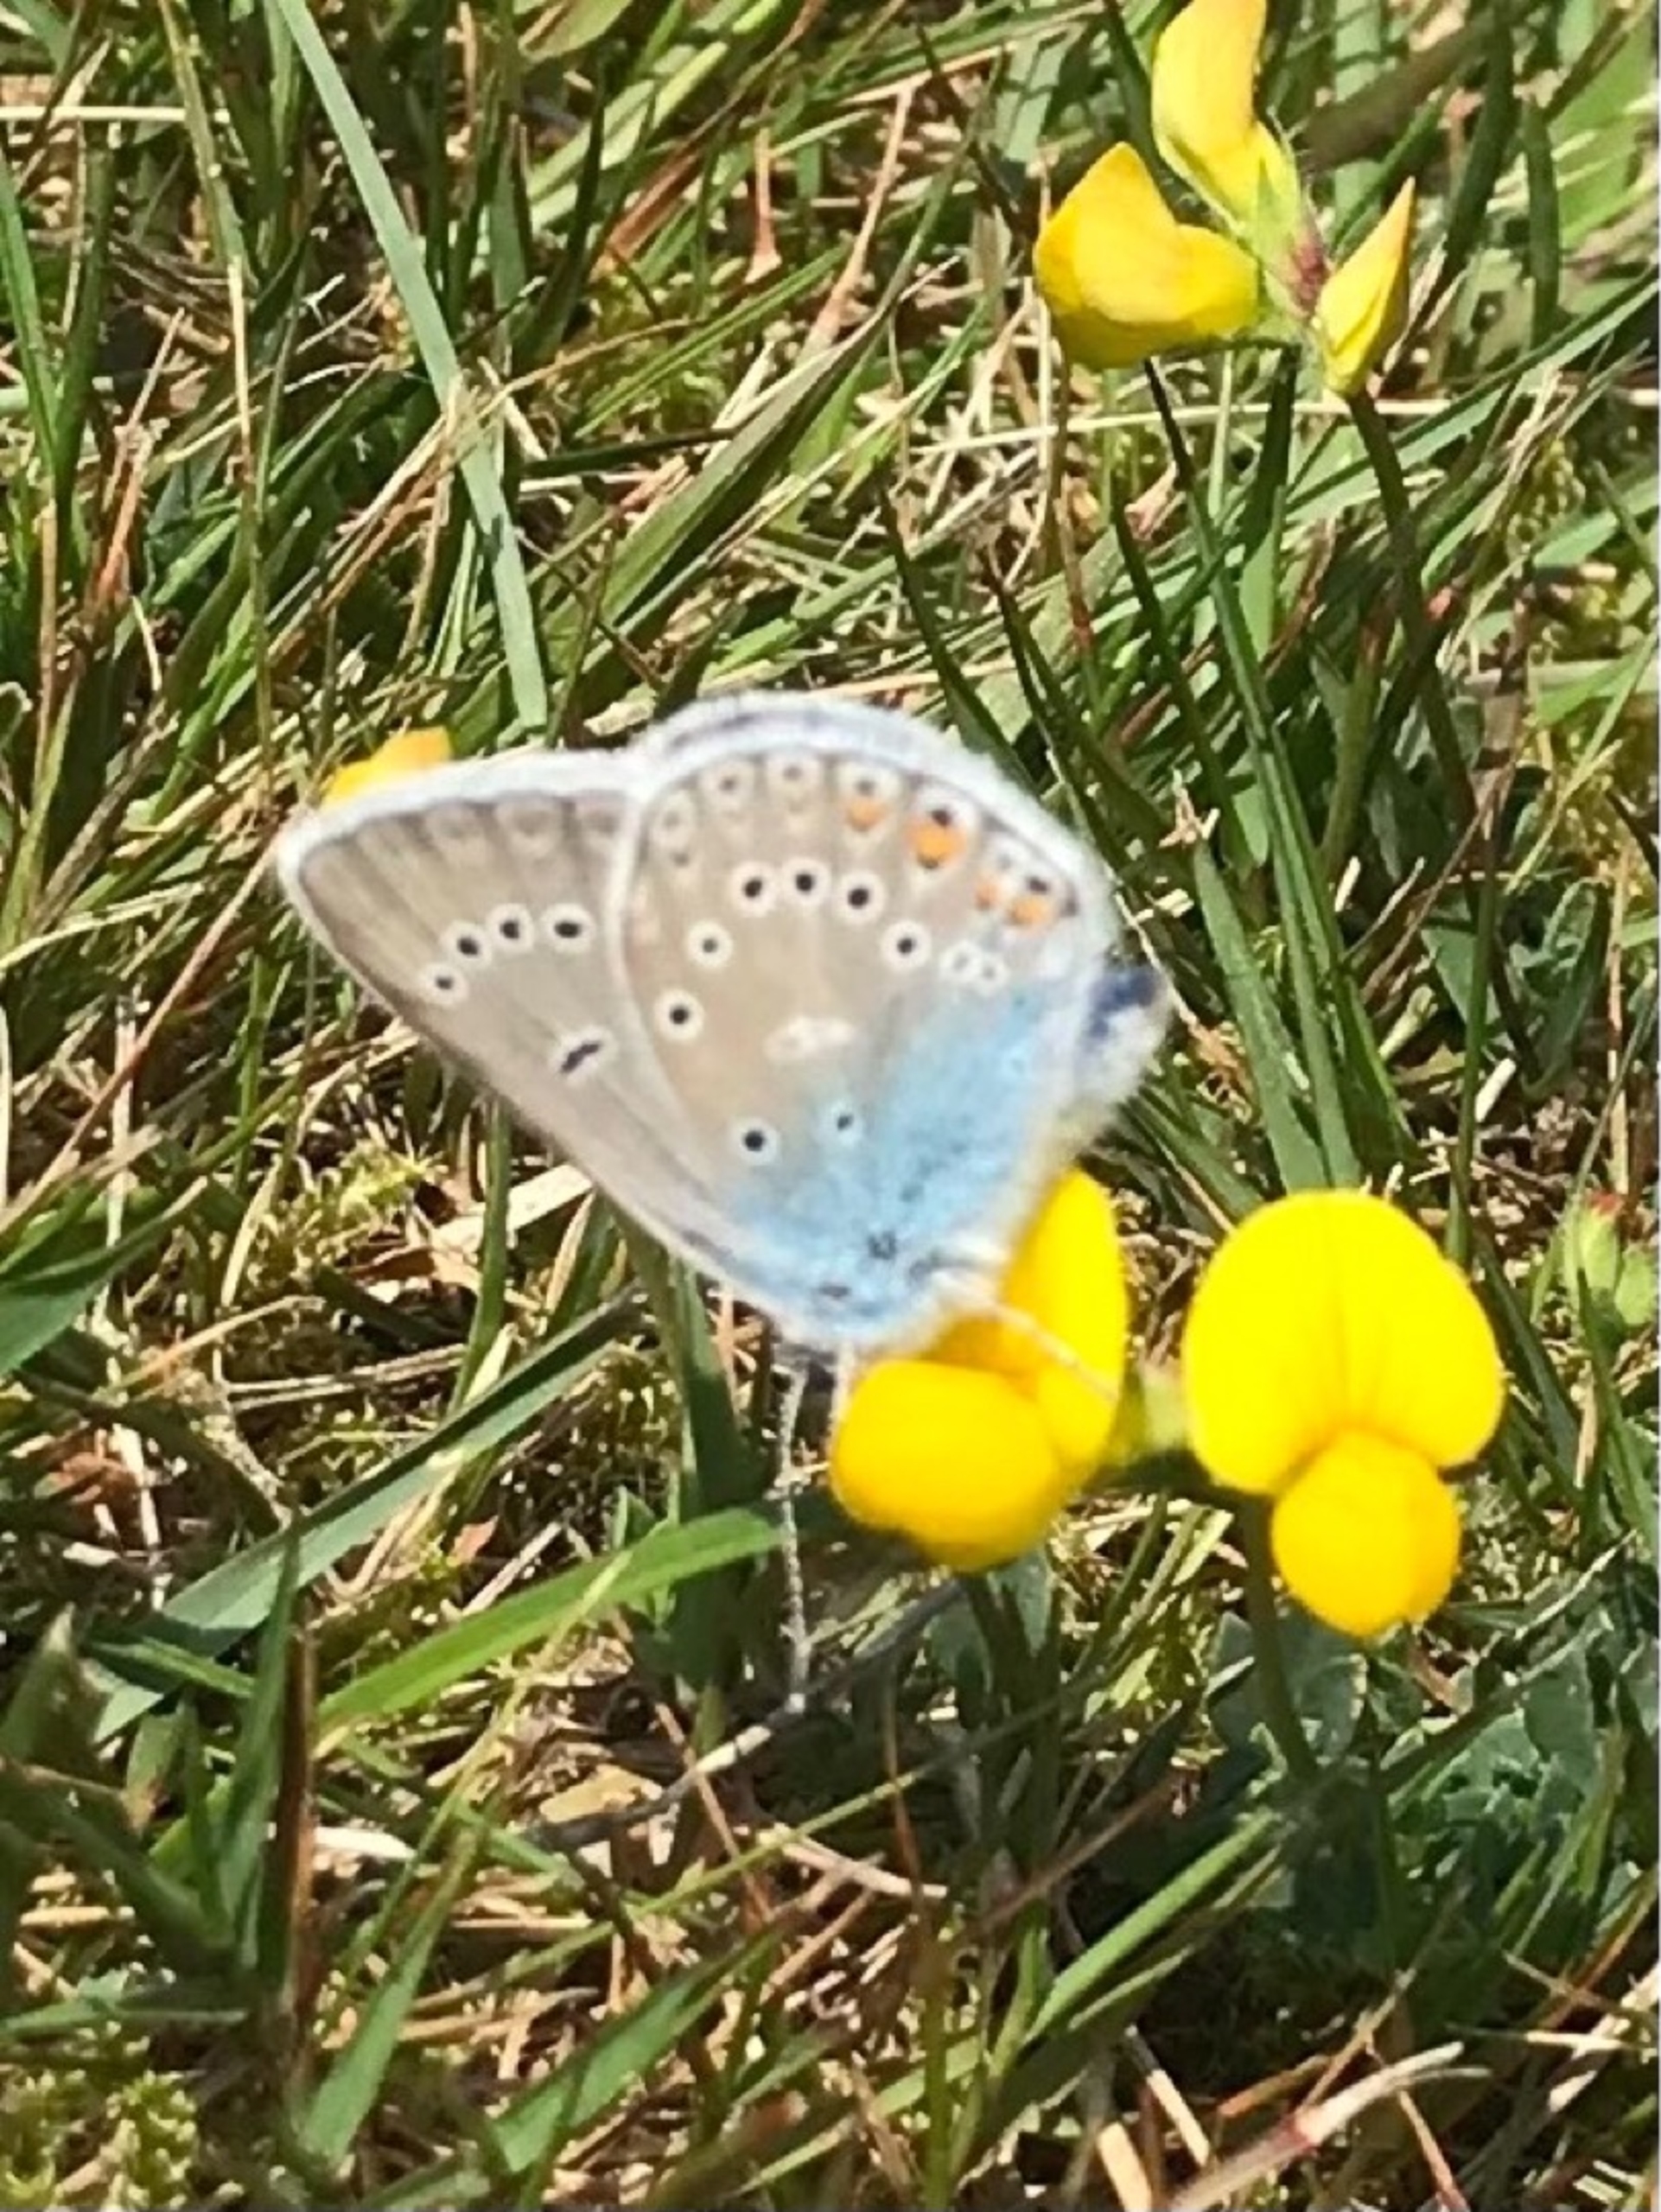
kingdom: Animalia
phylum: Arthropoda
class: Insecta
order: Lepidoptera
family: Lycaenidae
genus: Plebejus
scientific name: Plebejus amanda
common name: Isblåfugl
